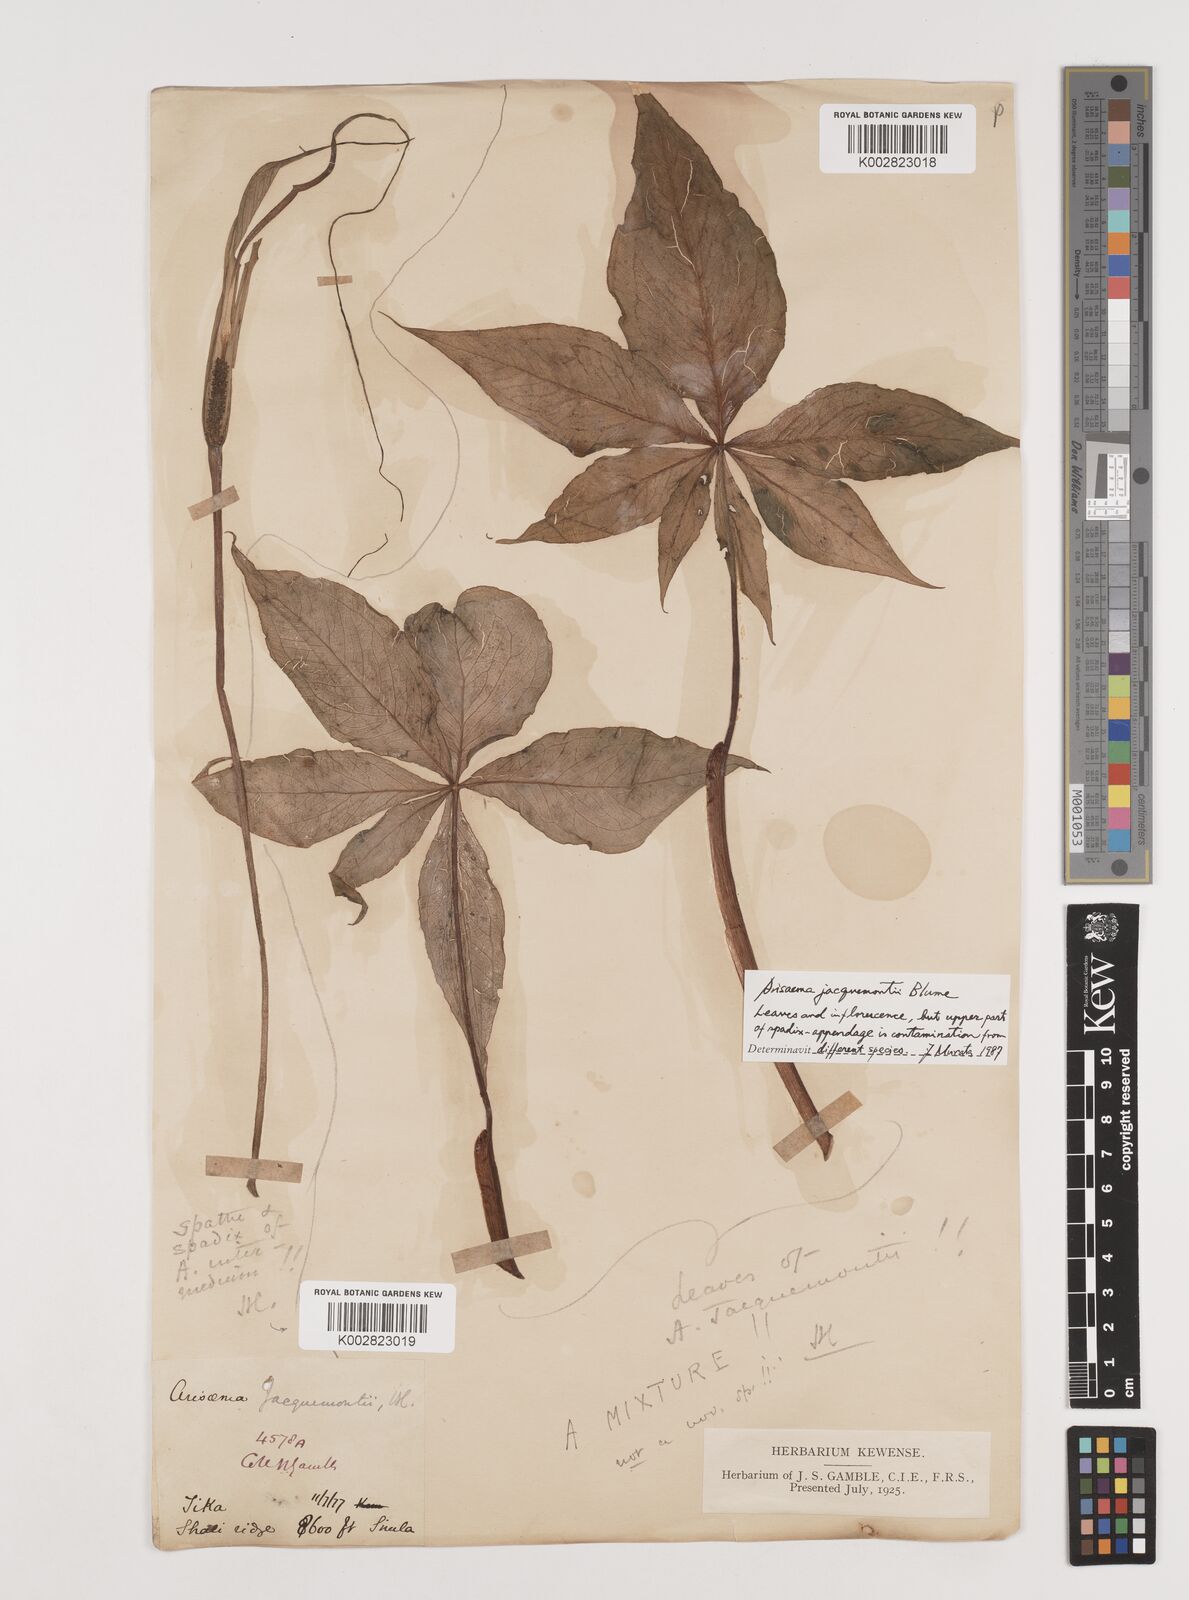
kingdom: Plantae
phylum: Tracheophyta
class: Liliopsida
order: Alismatales
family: Araceae
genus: Arisaema
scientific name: Arisaema jacquemontii
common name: Jacquemont's cobra-lily
